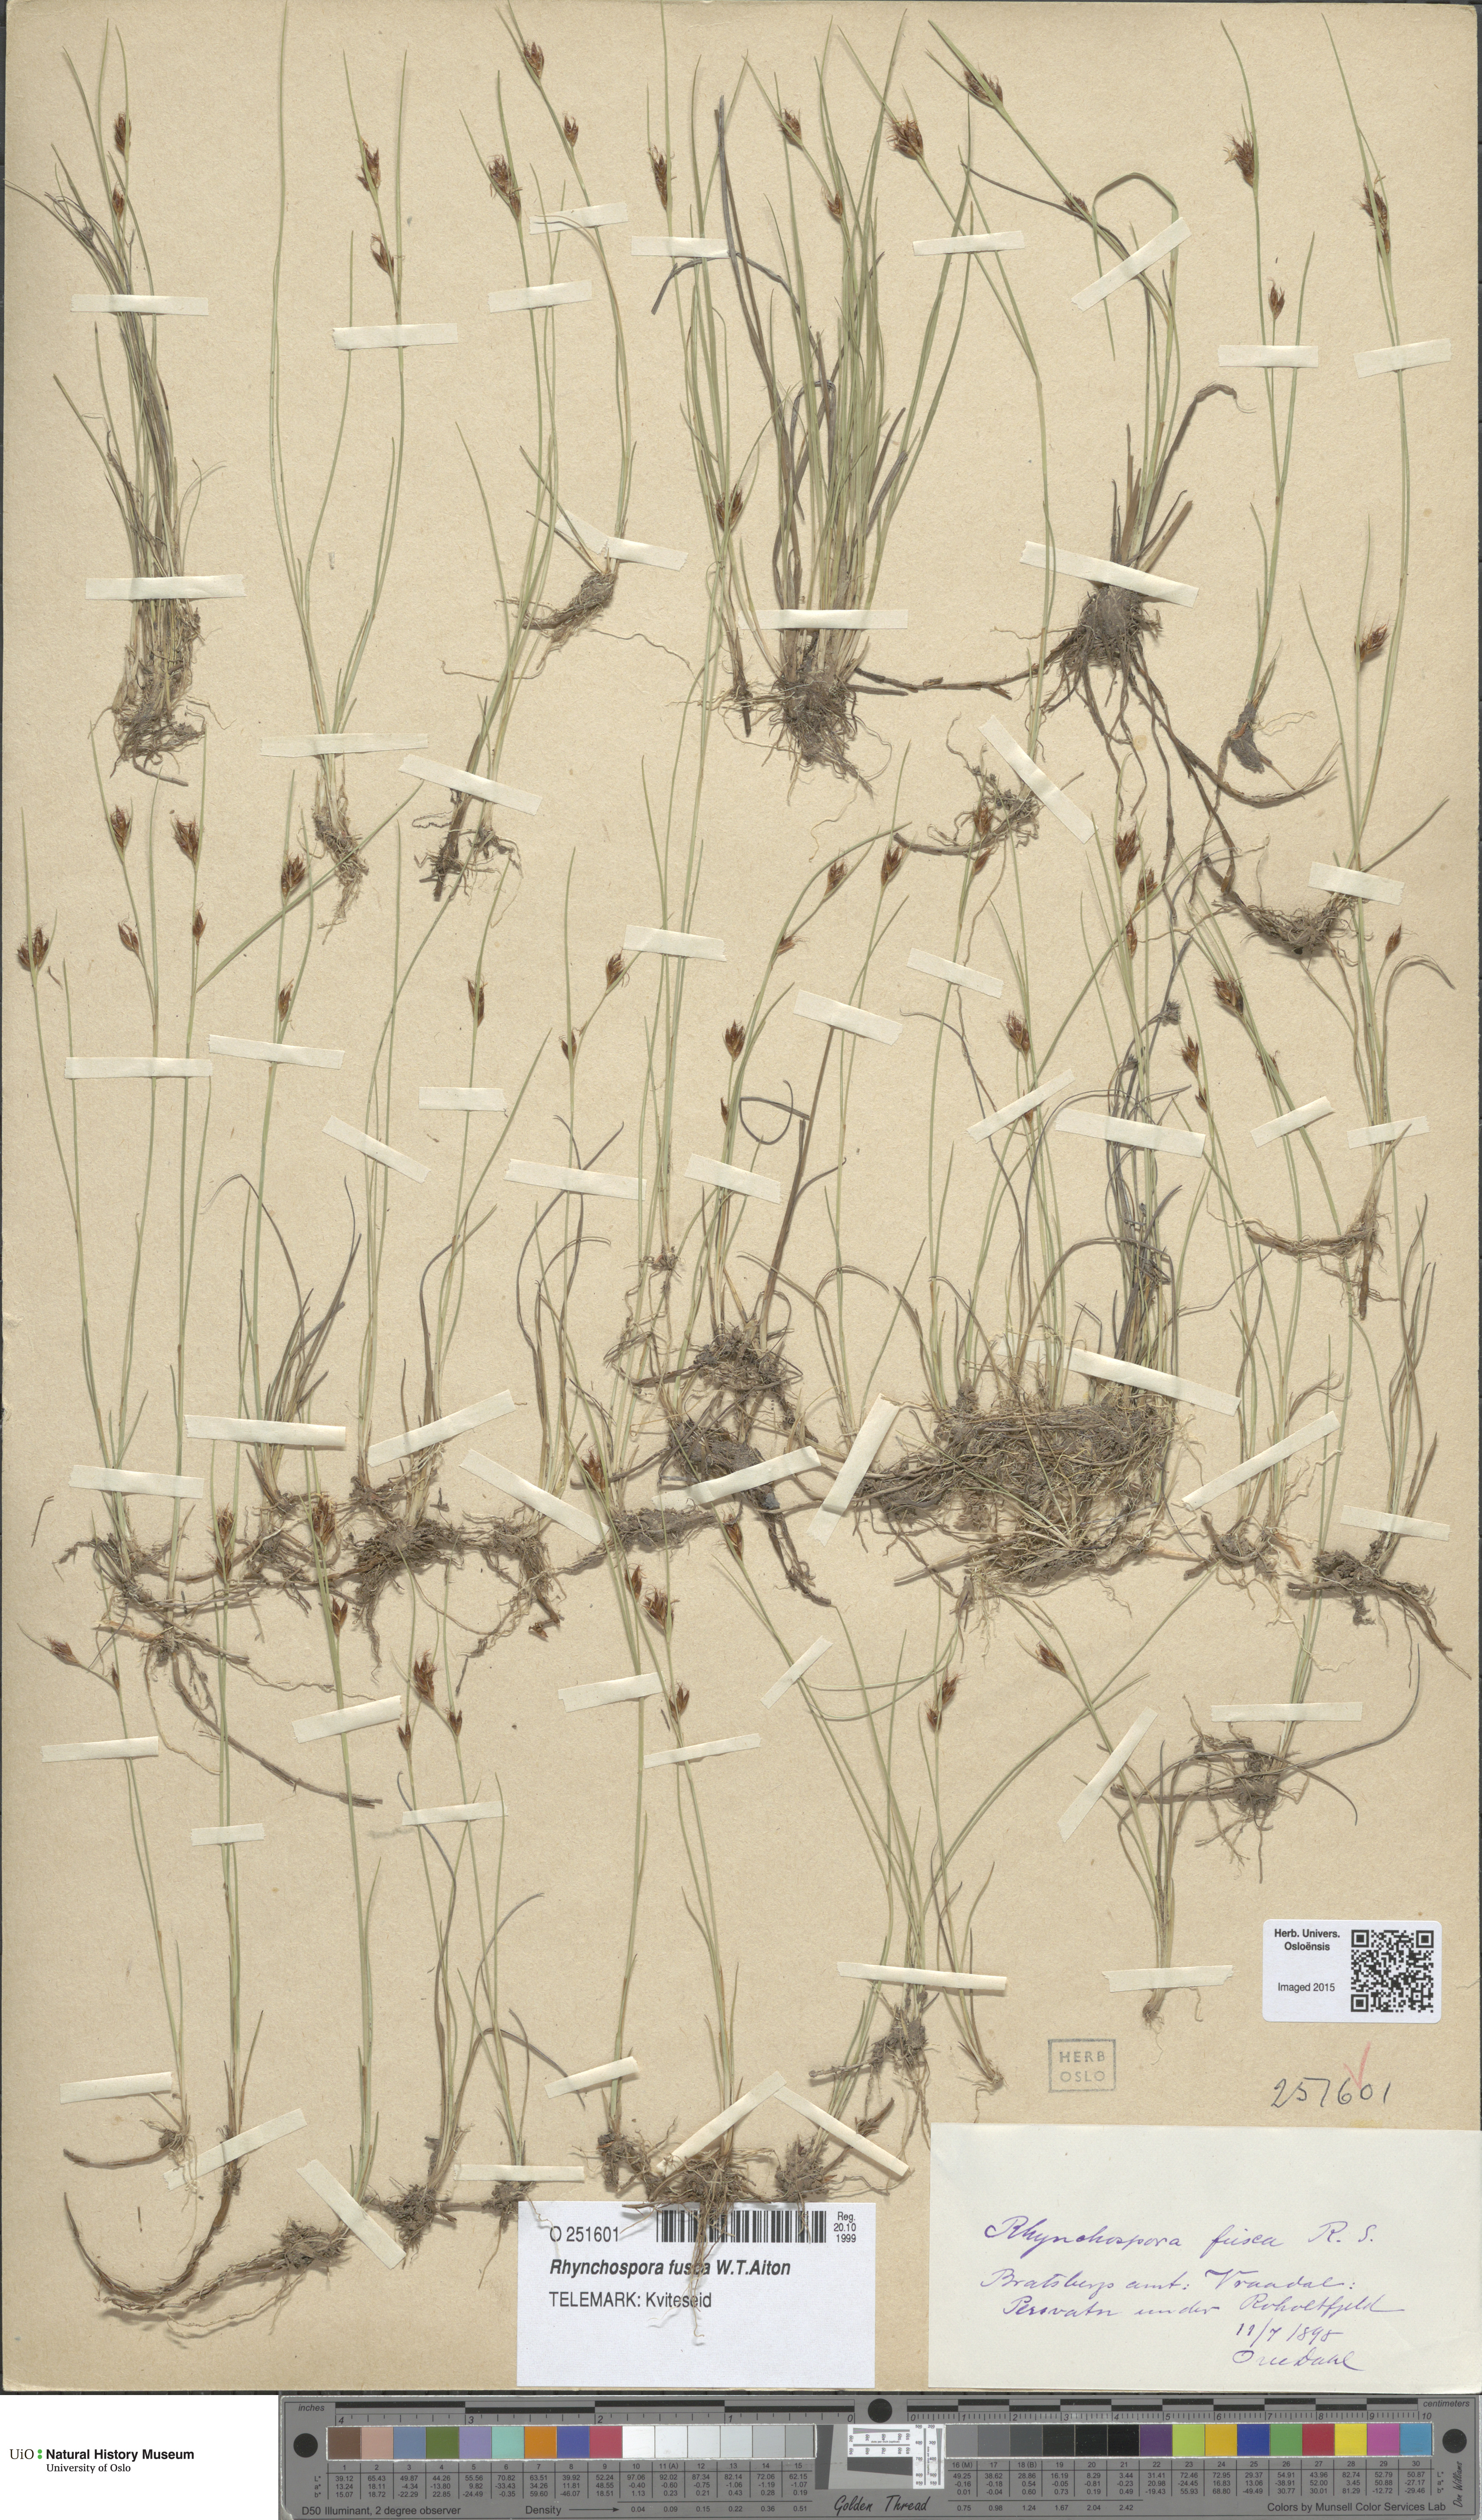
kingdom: Plantae
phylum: Tracheophyta
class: Liliopsida
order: Poales
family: Cyperaceae
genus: Rhynchospora
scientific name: Rhynchospora fusca
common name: Brown beak-sedge
